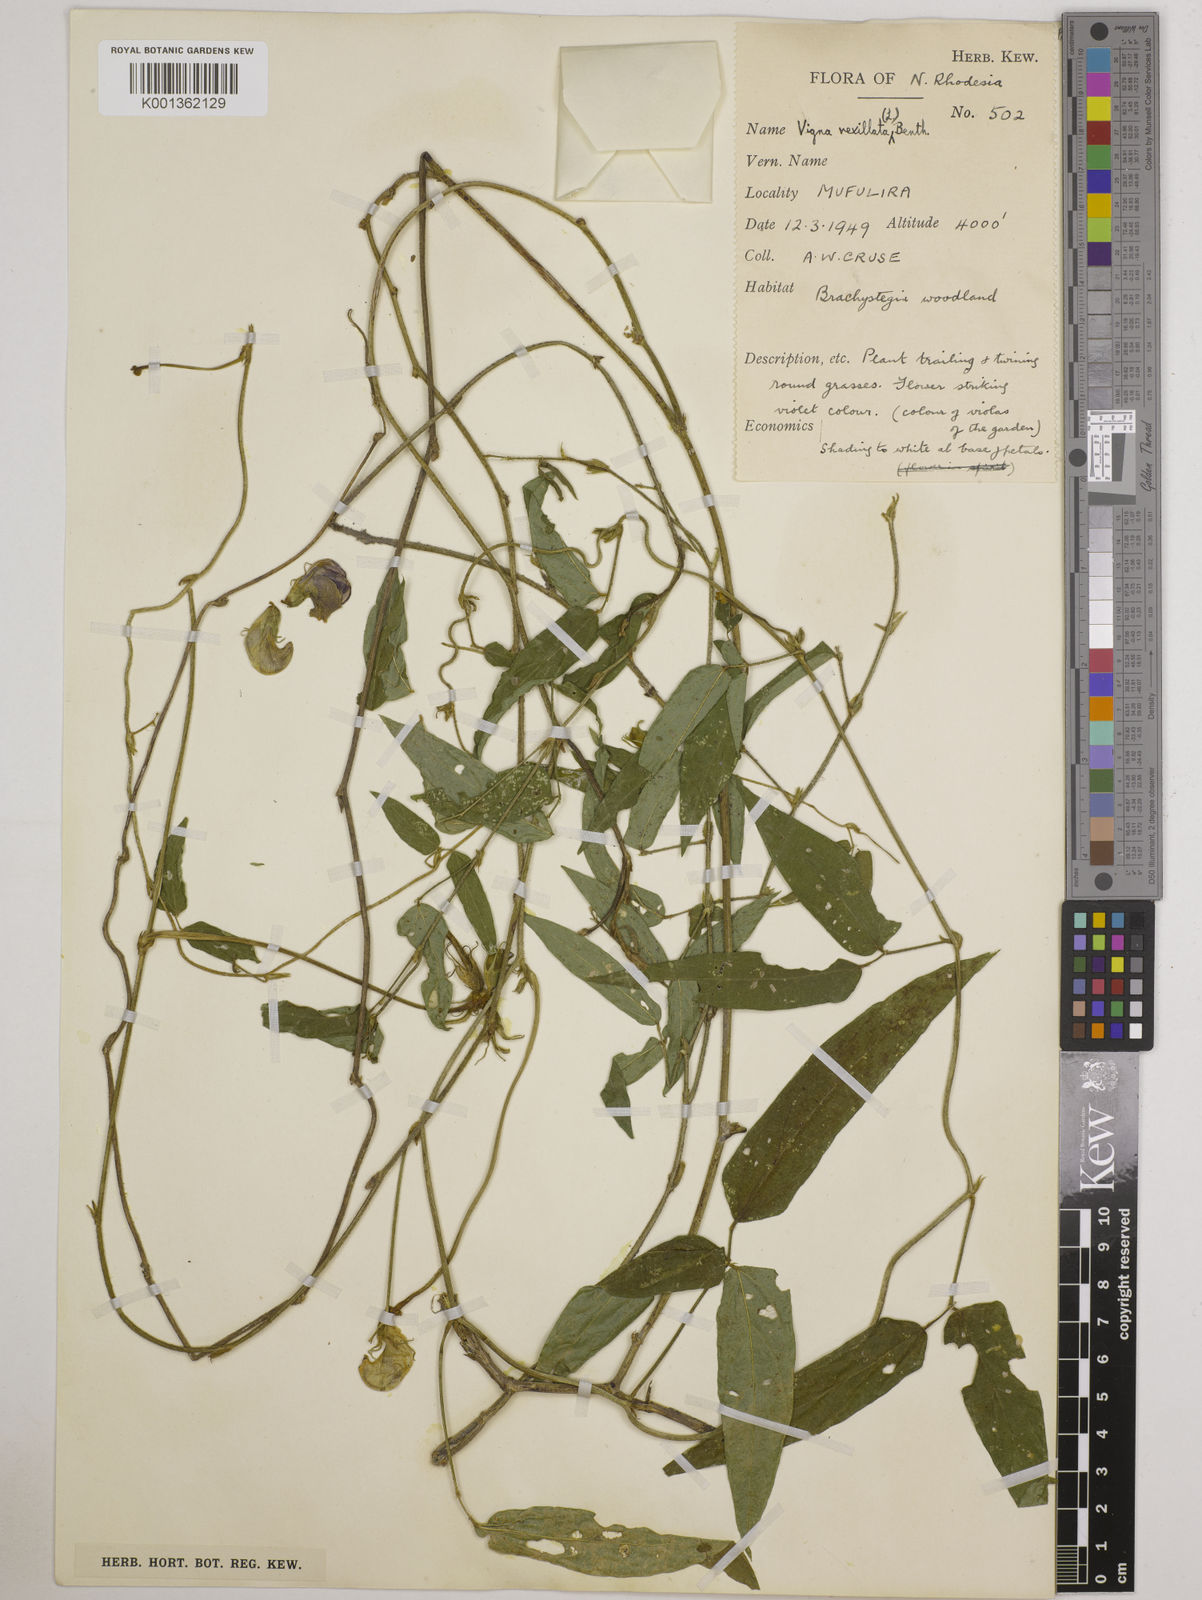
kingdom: Plantae
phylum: Tracheophyta
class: Magnoliopsida
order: Fabales
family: Fabaceae
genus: Vigna
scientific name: Vigna vexillata
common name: Zombi pea
